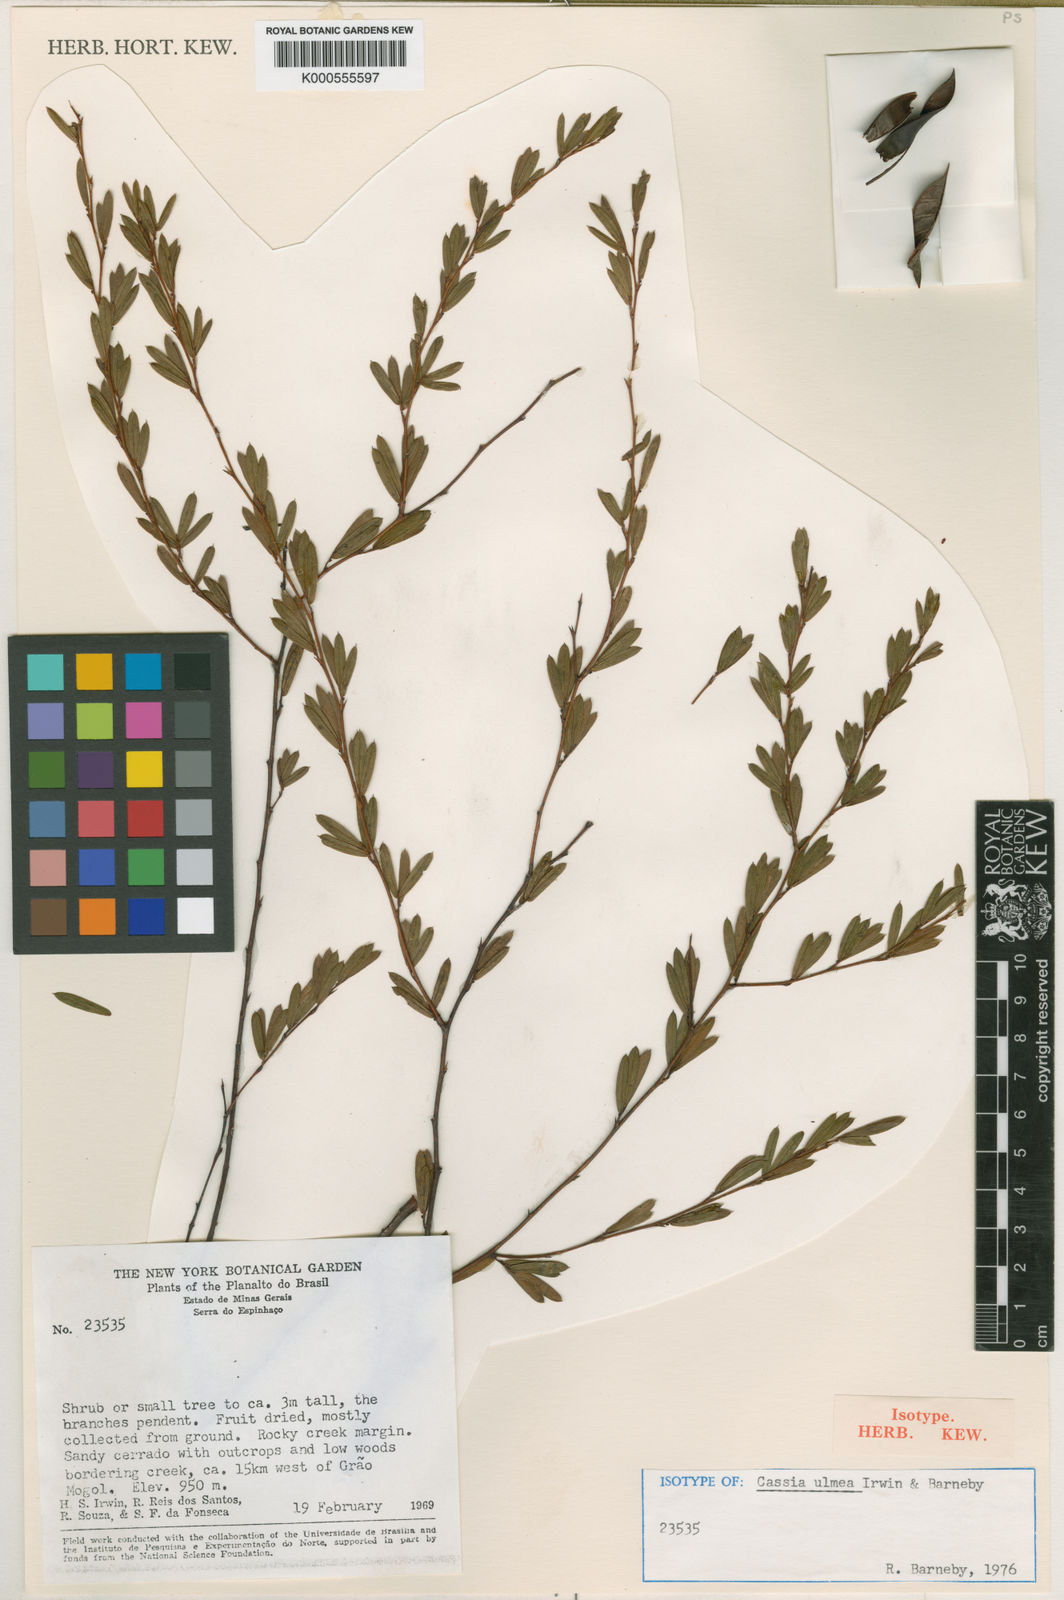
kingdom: Plantae
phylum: Tracheophyta
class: Magnoliopsida
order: Fabales
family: Fabaceae
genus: Chamaecrista
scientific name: Chamaecrista ulmea
